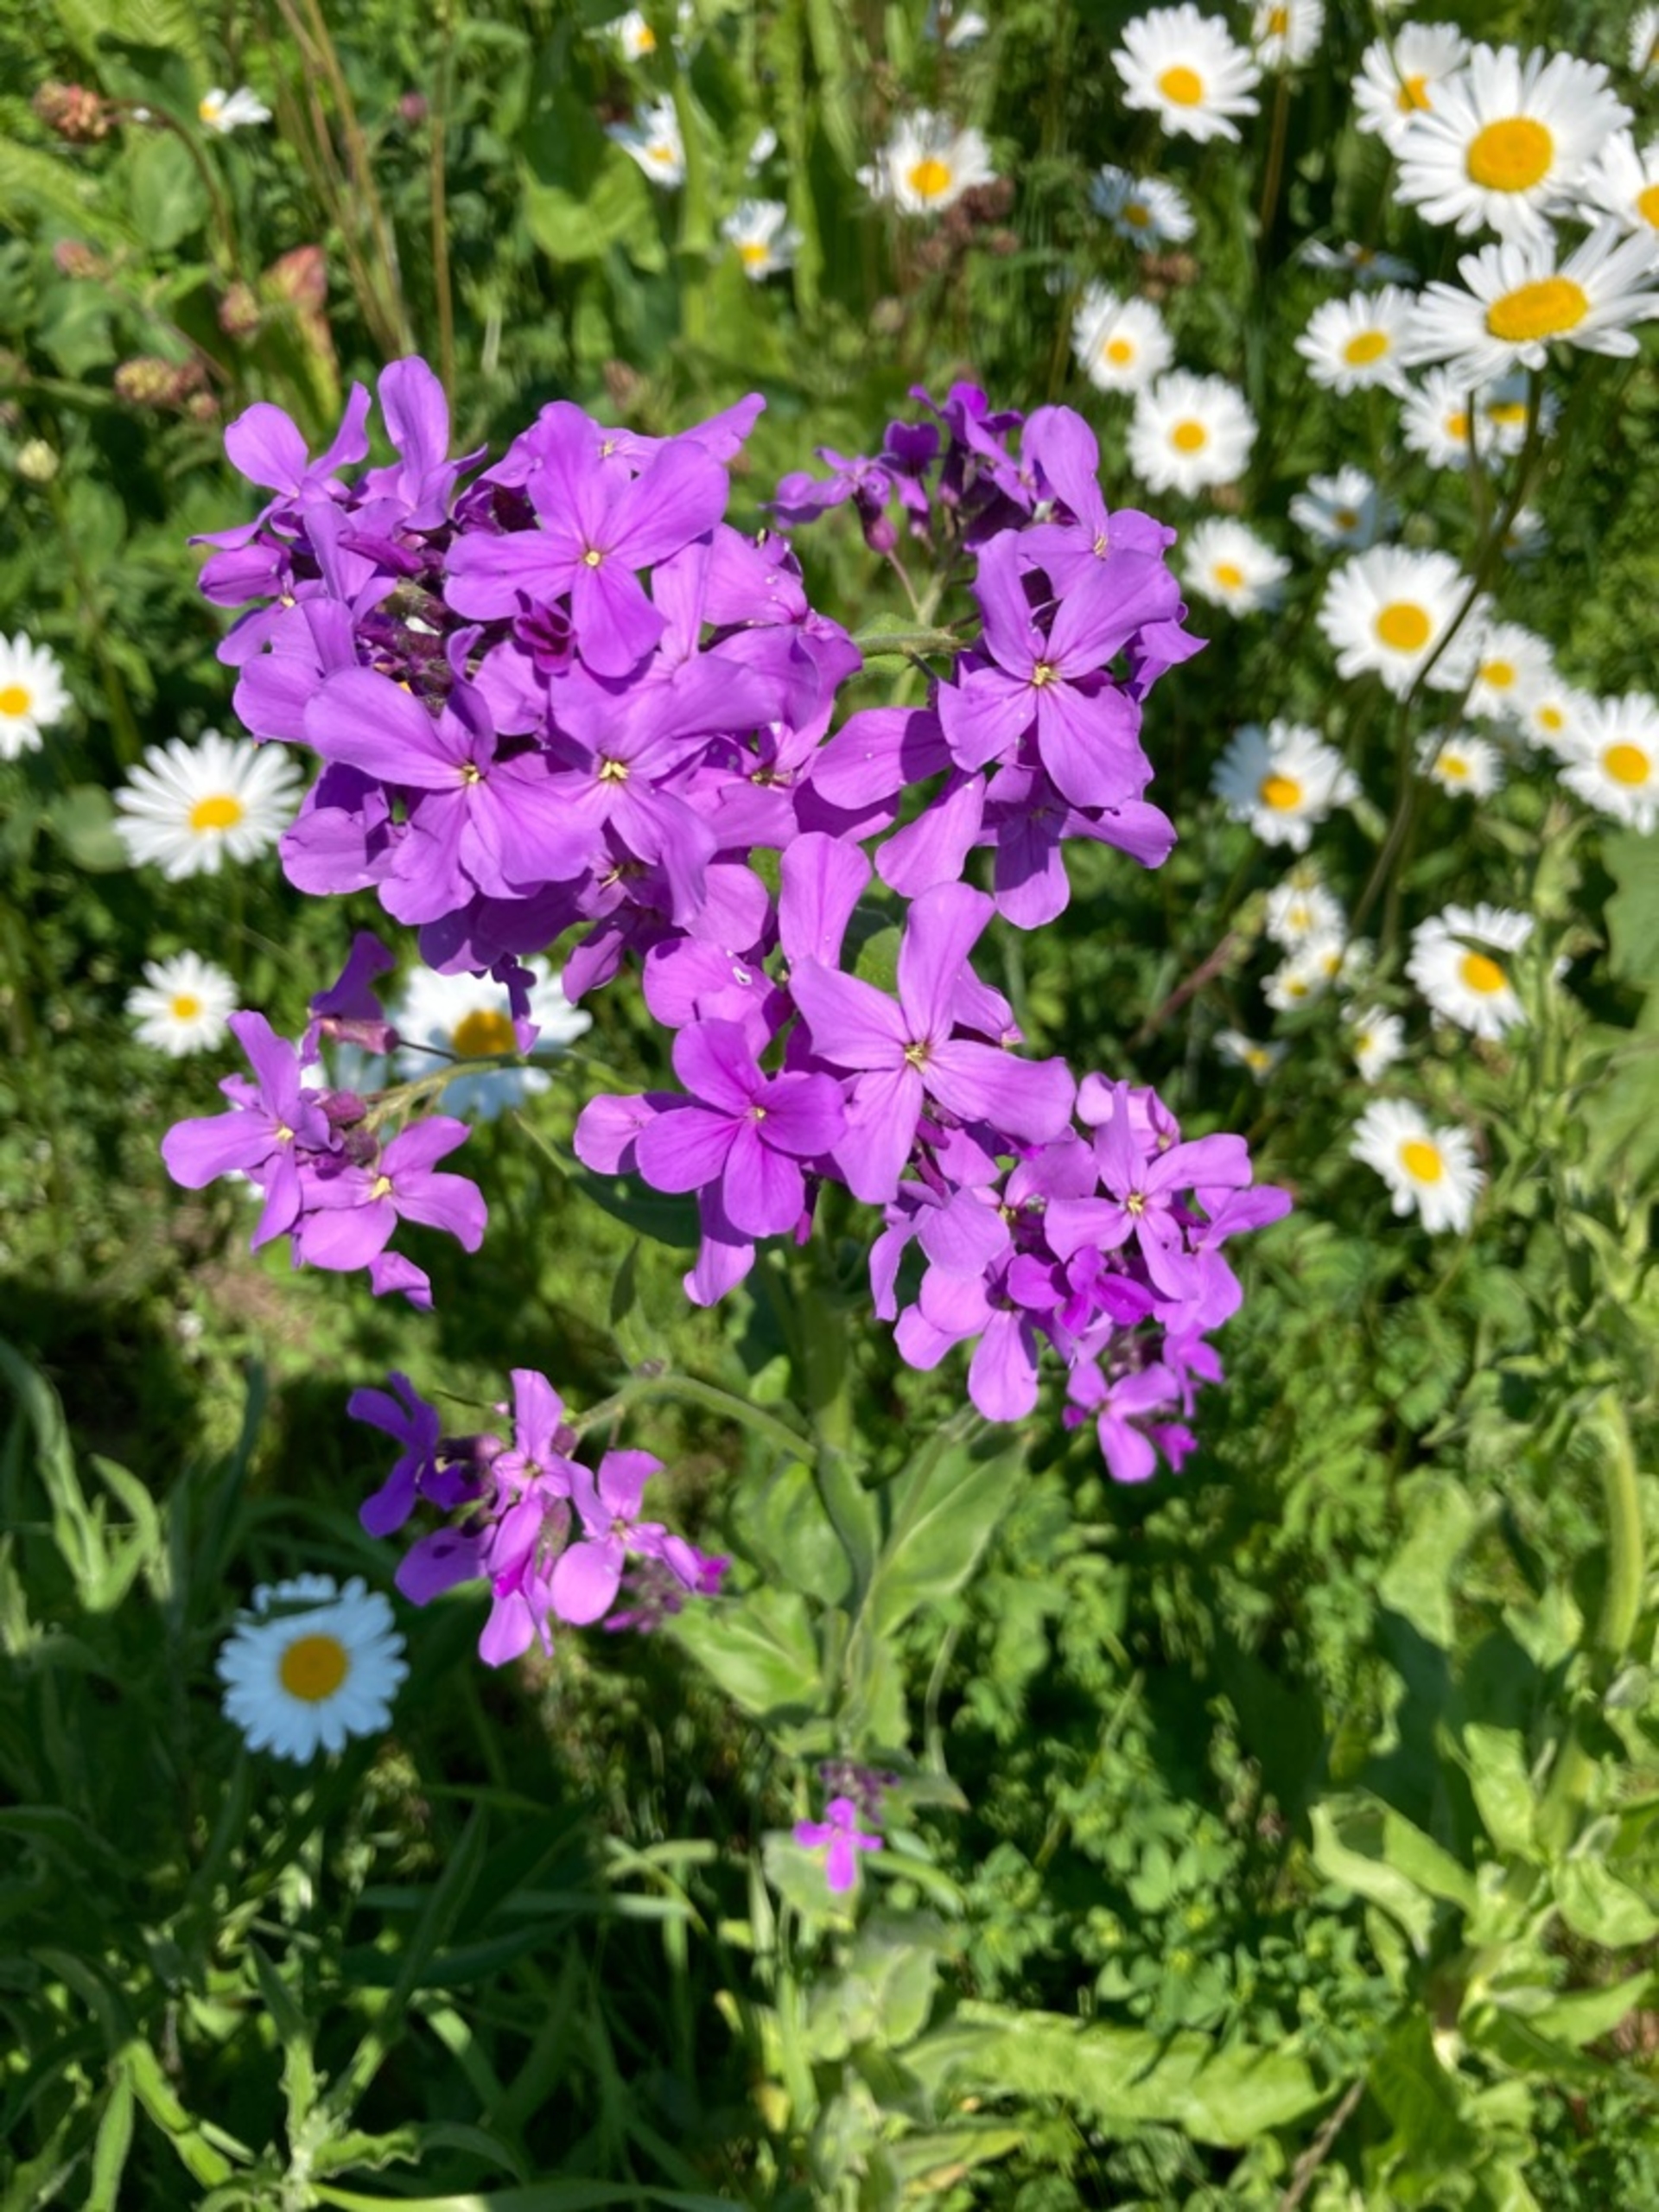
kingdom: Plantae
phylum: Tracheophyta
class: Magnoliopsida
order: Brassicales
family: Brassicaceae
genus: Hesperis
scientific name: Hesperis matronalis
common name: Aftenstjerne
